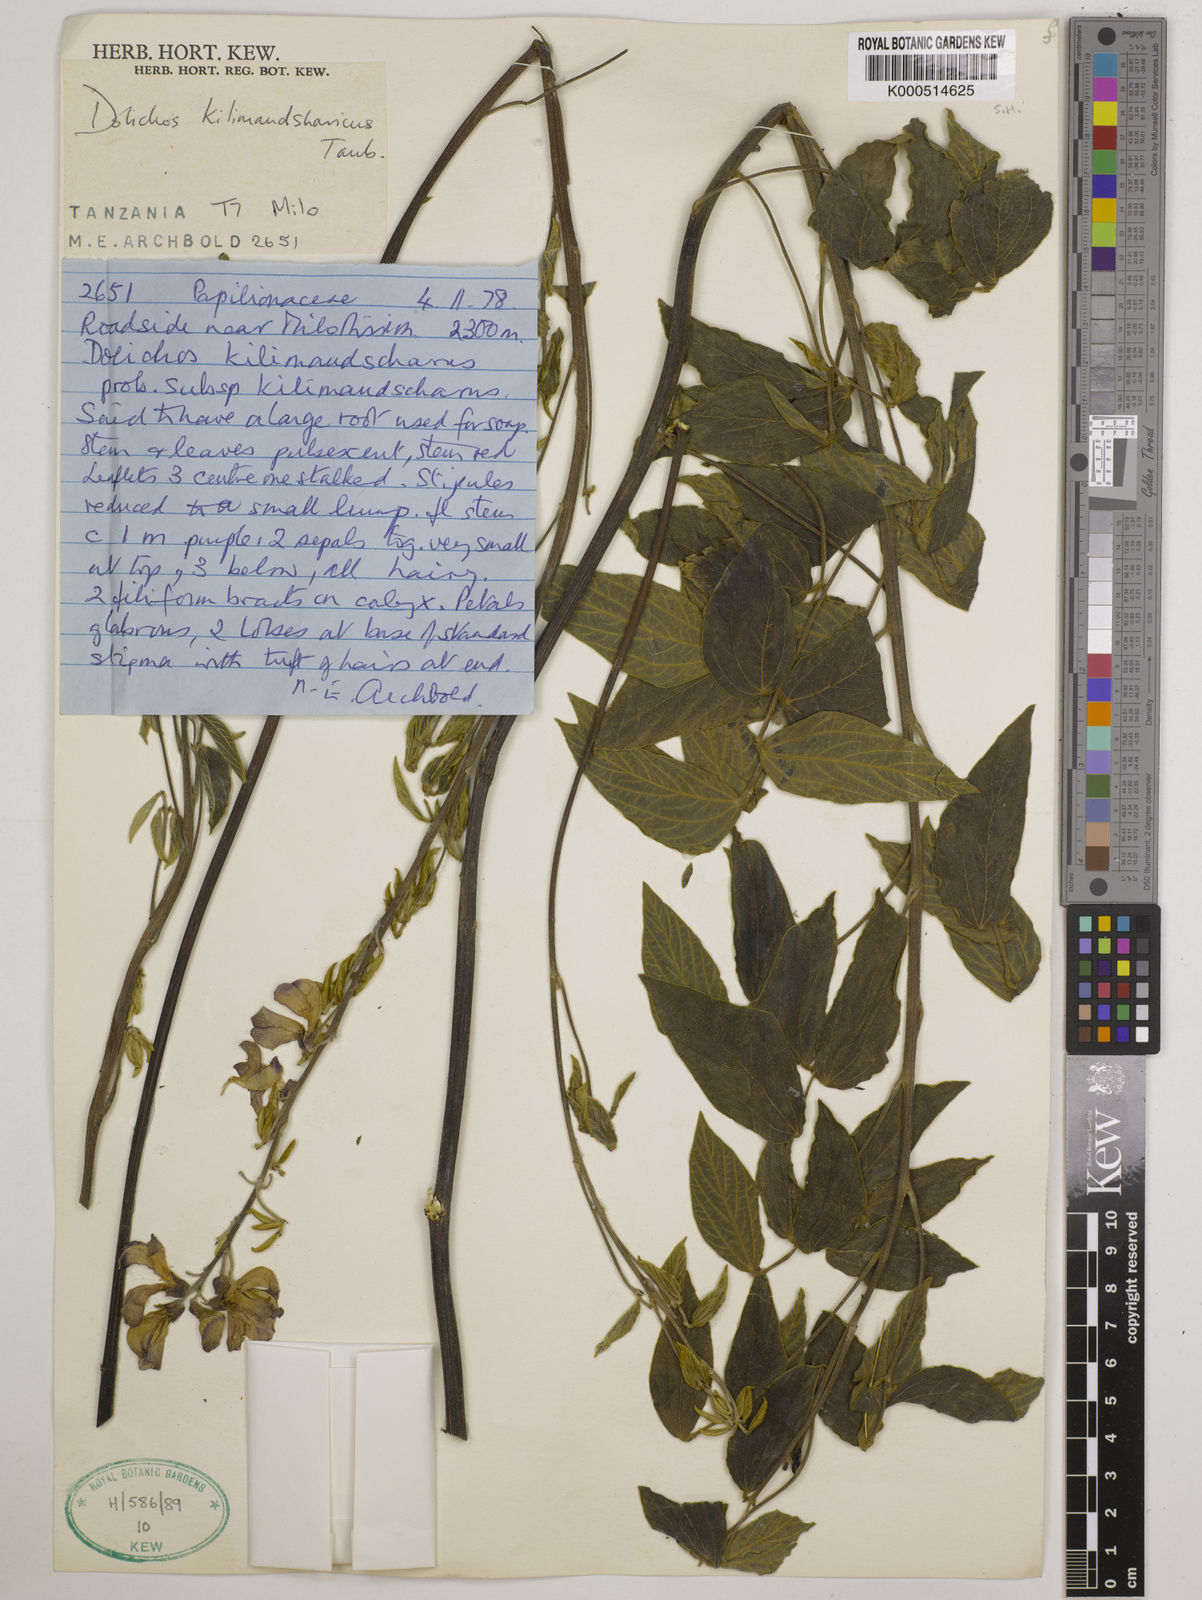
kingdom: Plantae
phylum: Tracheophyta
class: Magnoliopsida
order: Fabales
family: Fabaceae
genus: Dolichos
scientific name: Dolichos kilimandscharicus
